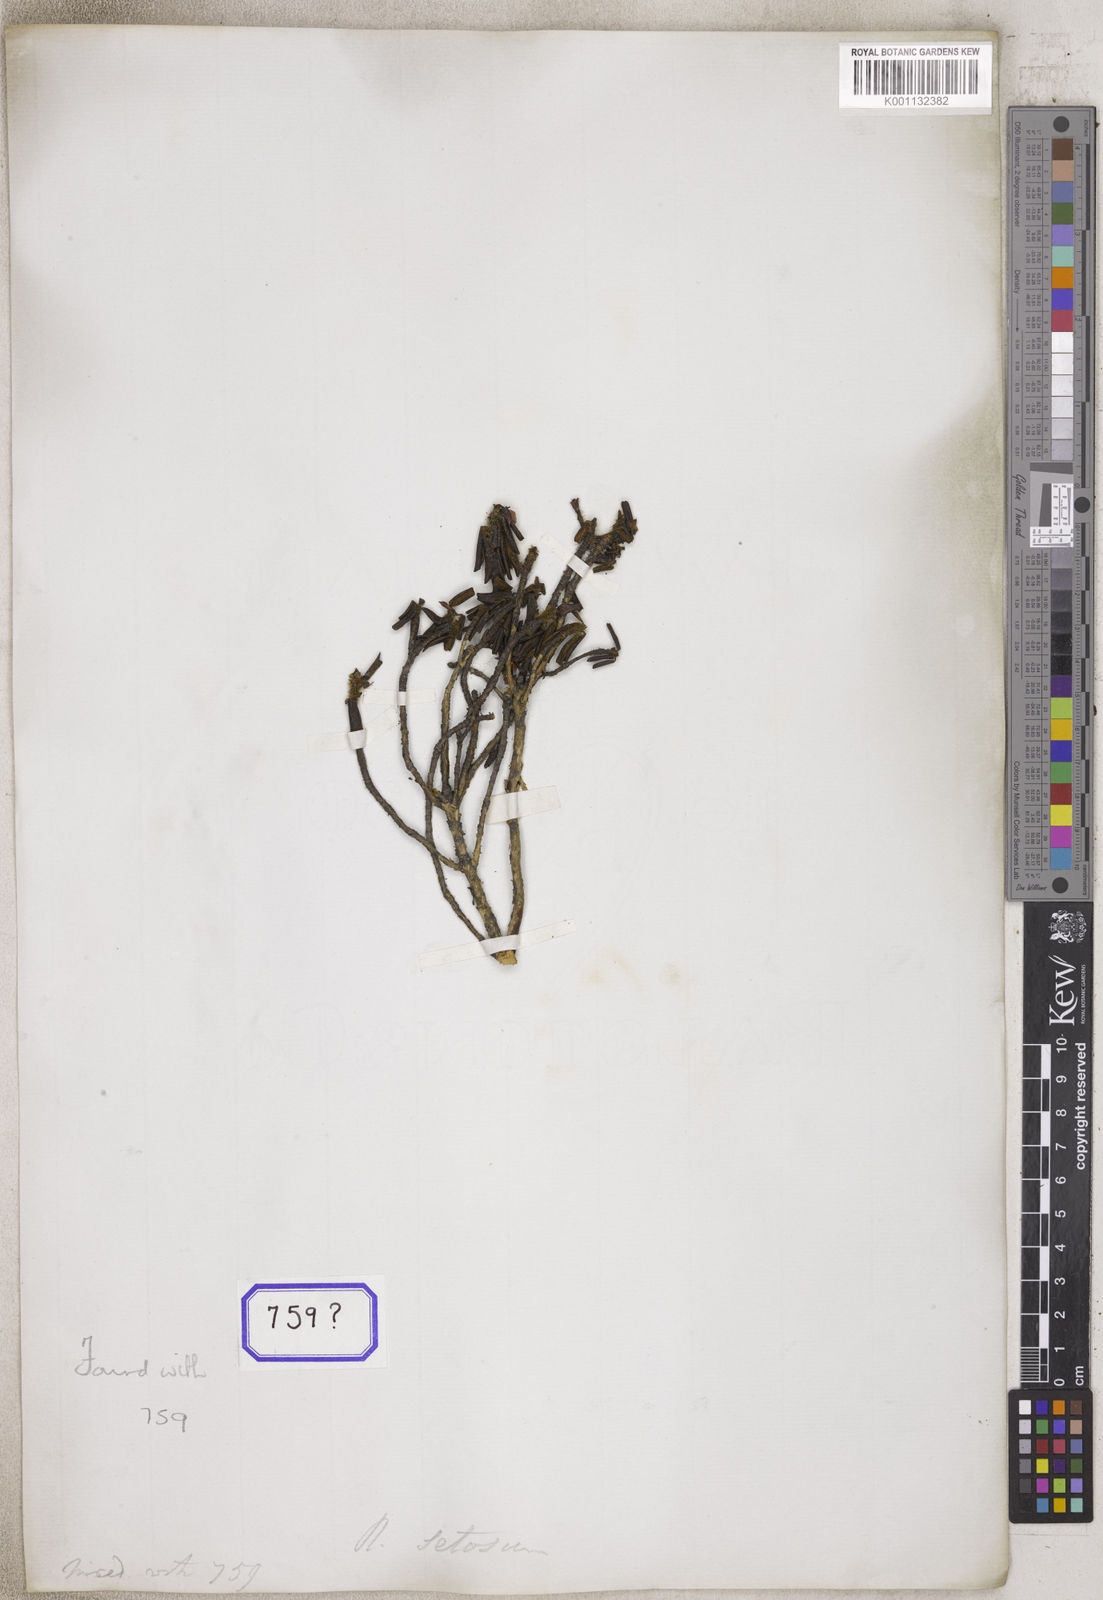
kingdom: Plantae
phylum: Tracheophyta
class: Magnoliopsida
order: Ericales
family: Ericaceae
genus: Rhododendron
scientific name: Rhododendron
